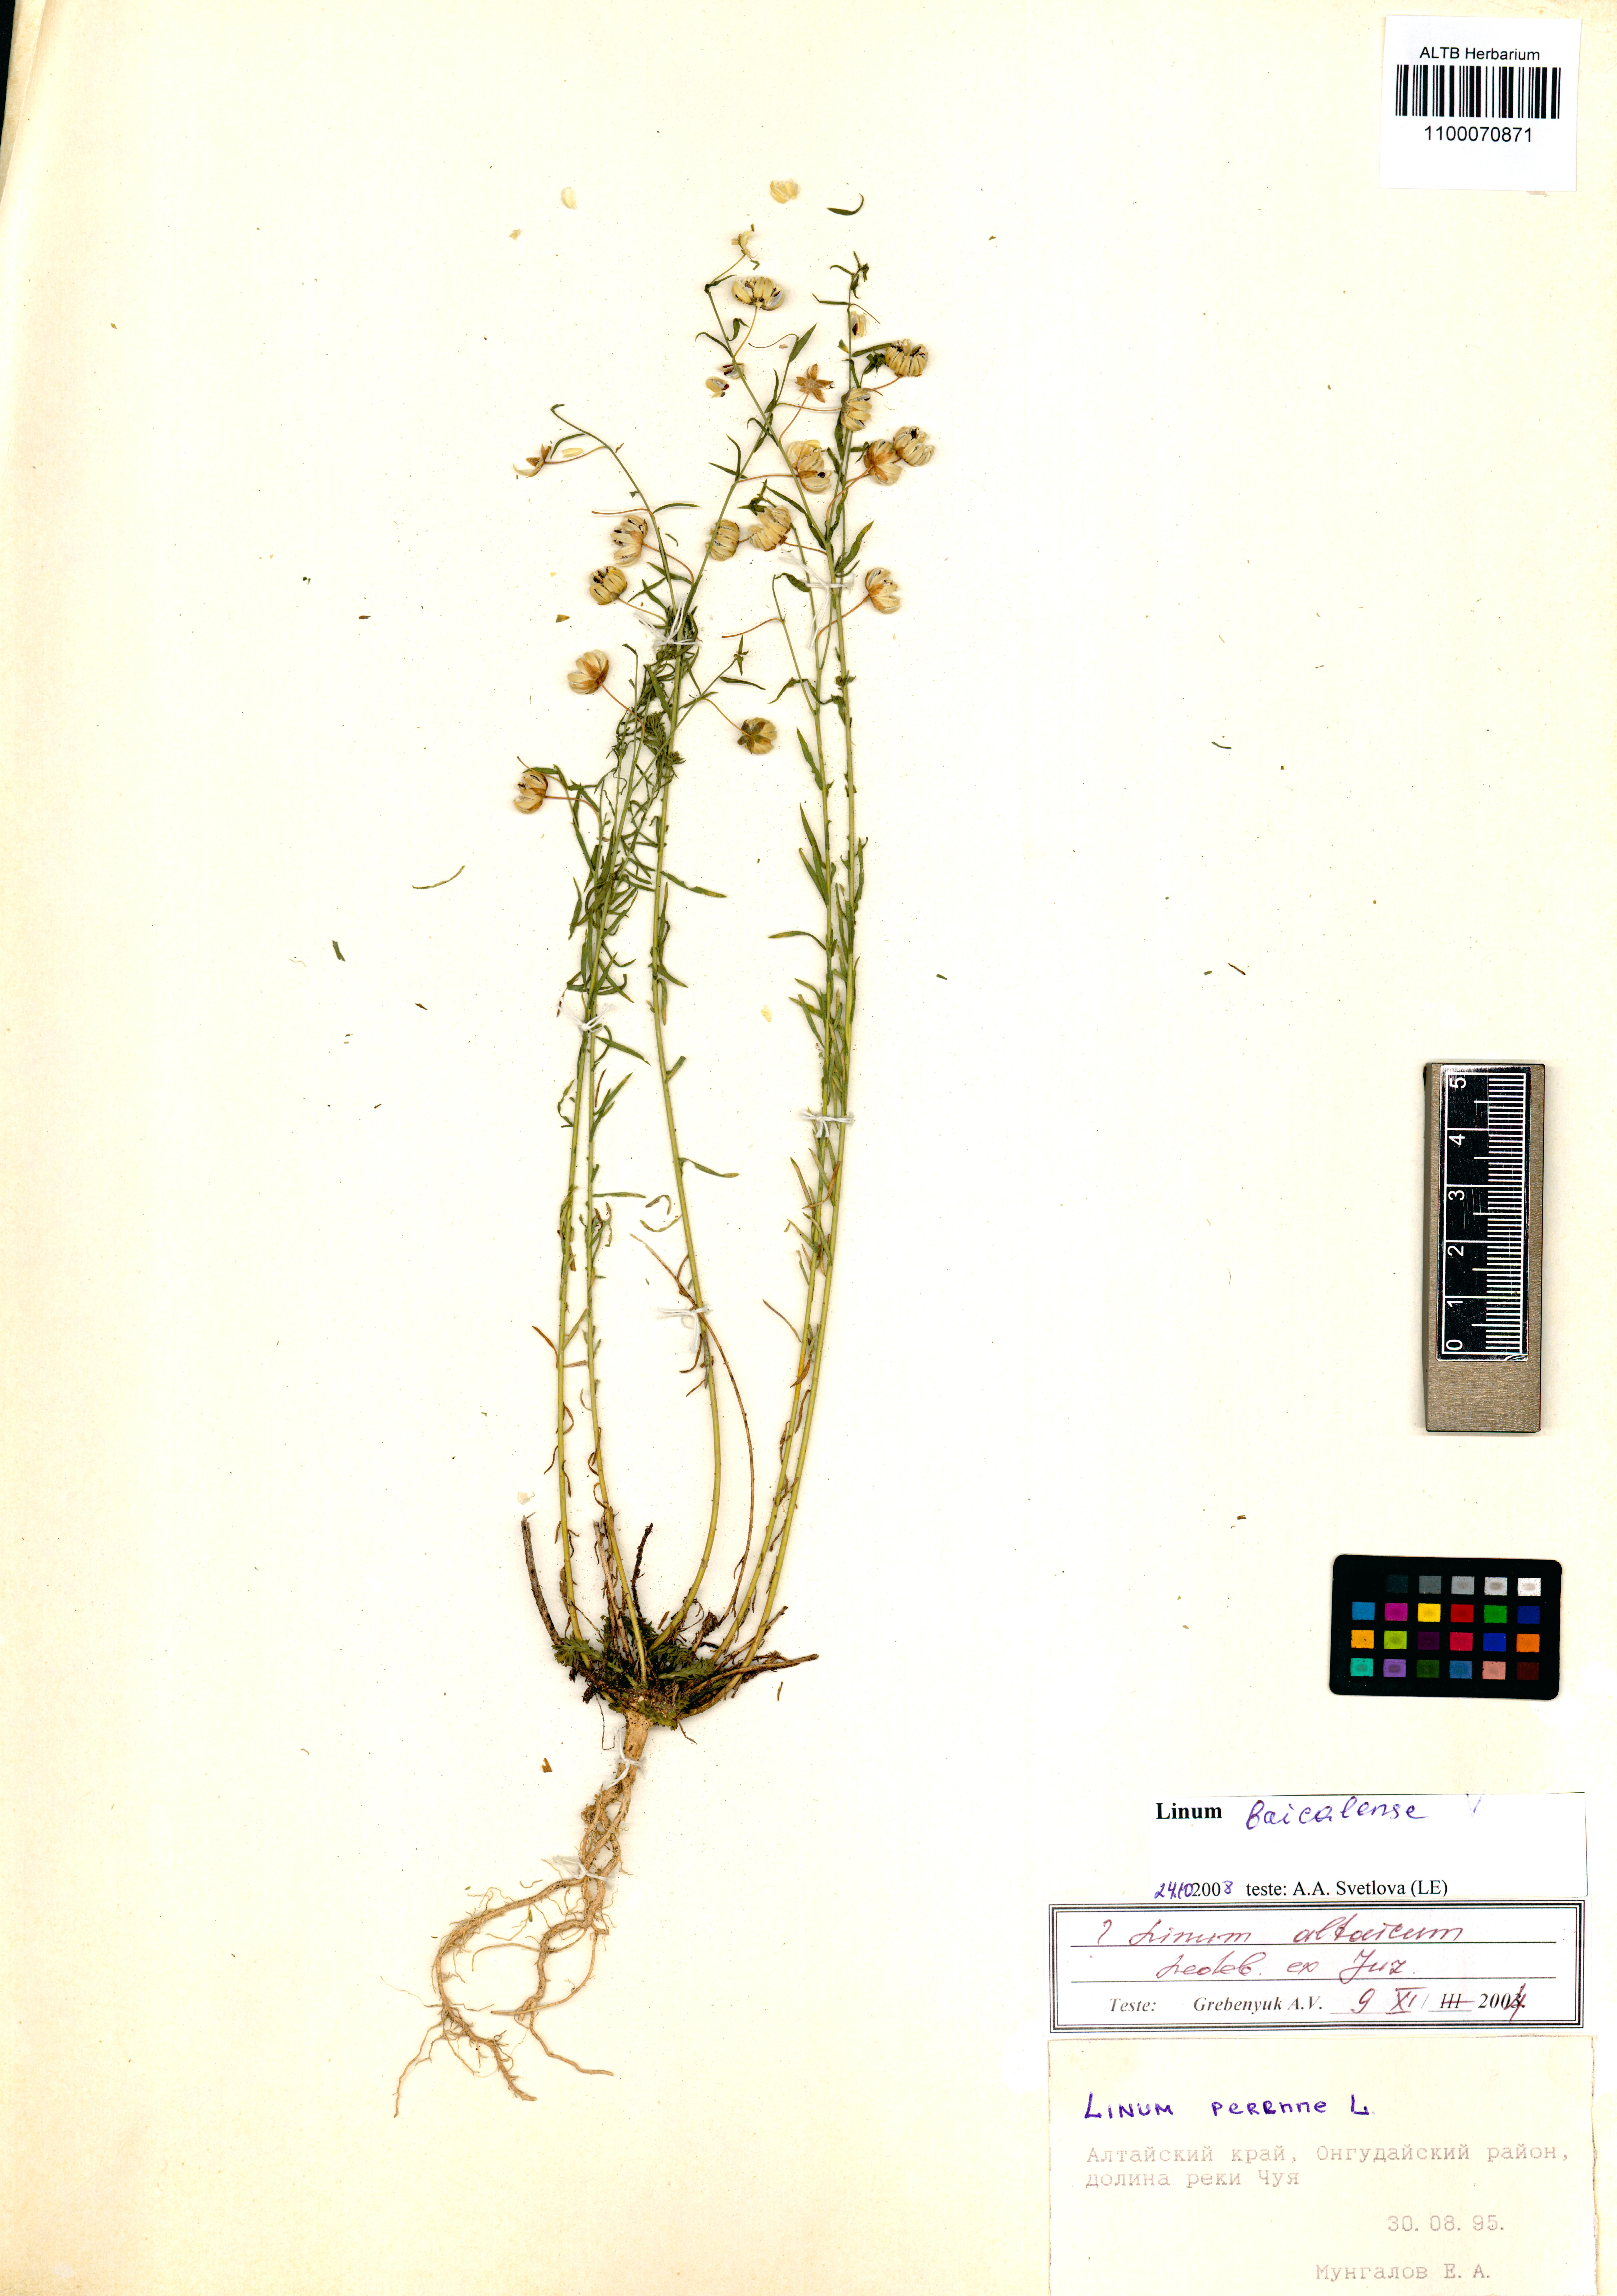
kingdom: Plantae
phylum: Tracheophyta
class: Magnoliopsida
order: Malpighiales
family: Linaceae
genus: Linum
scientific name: Linum nutans
